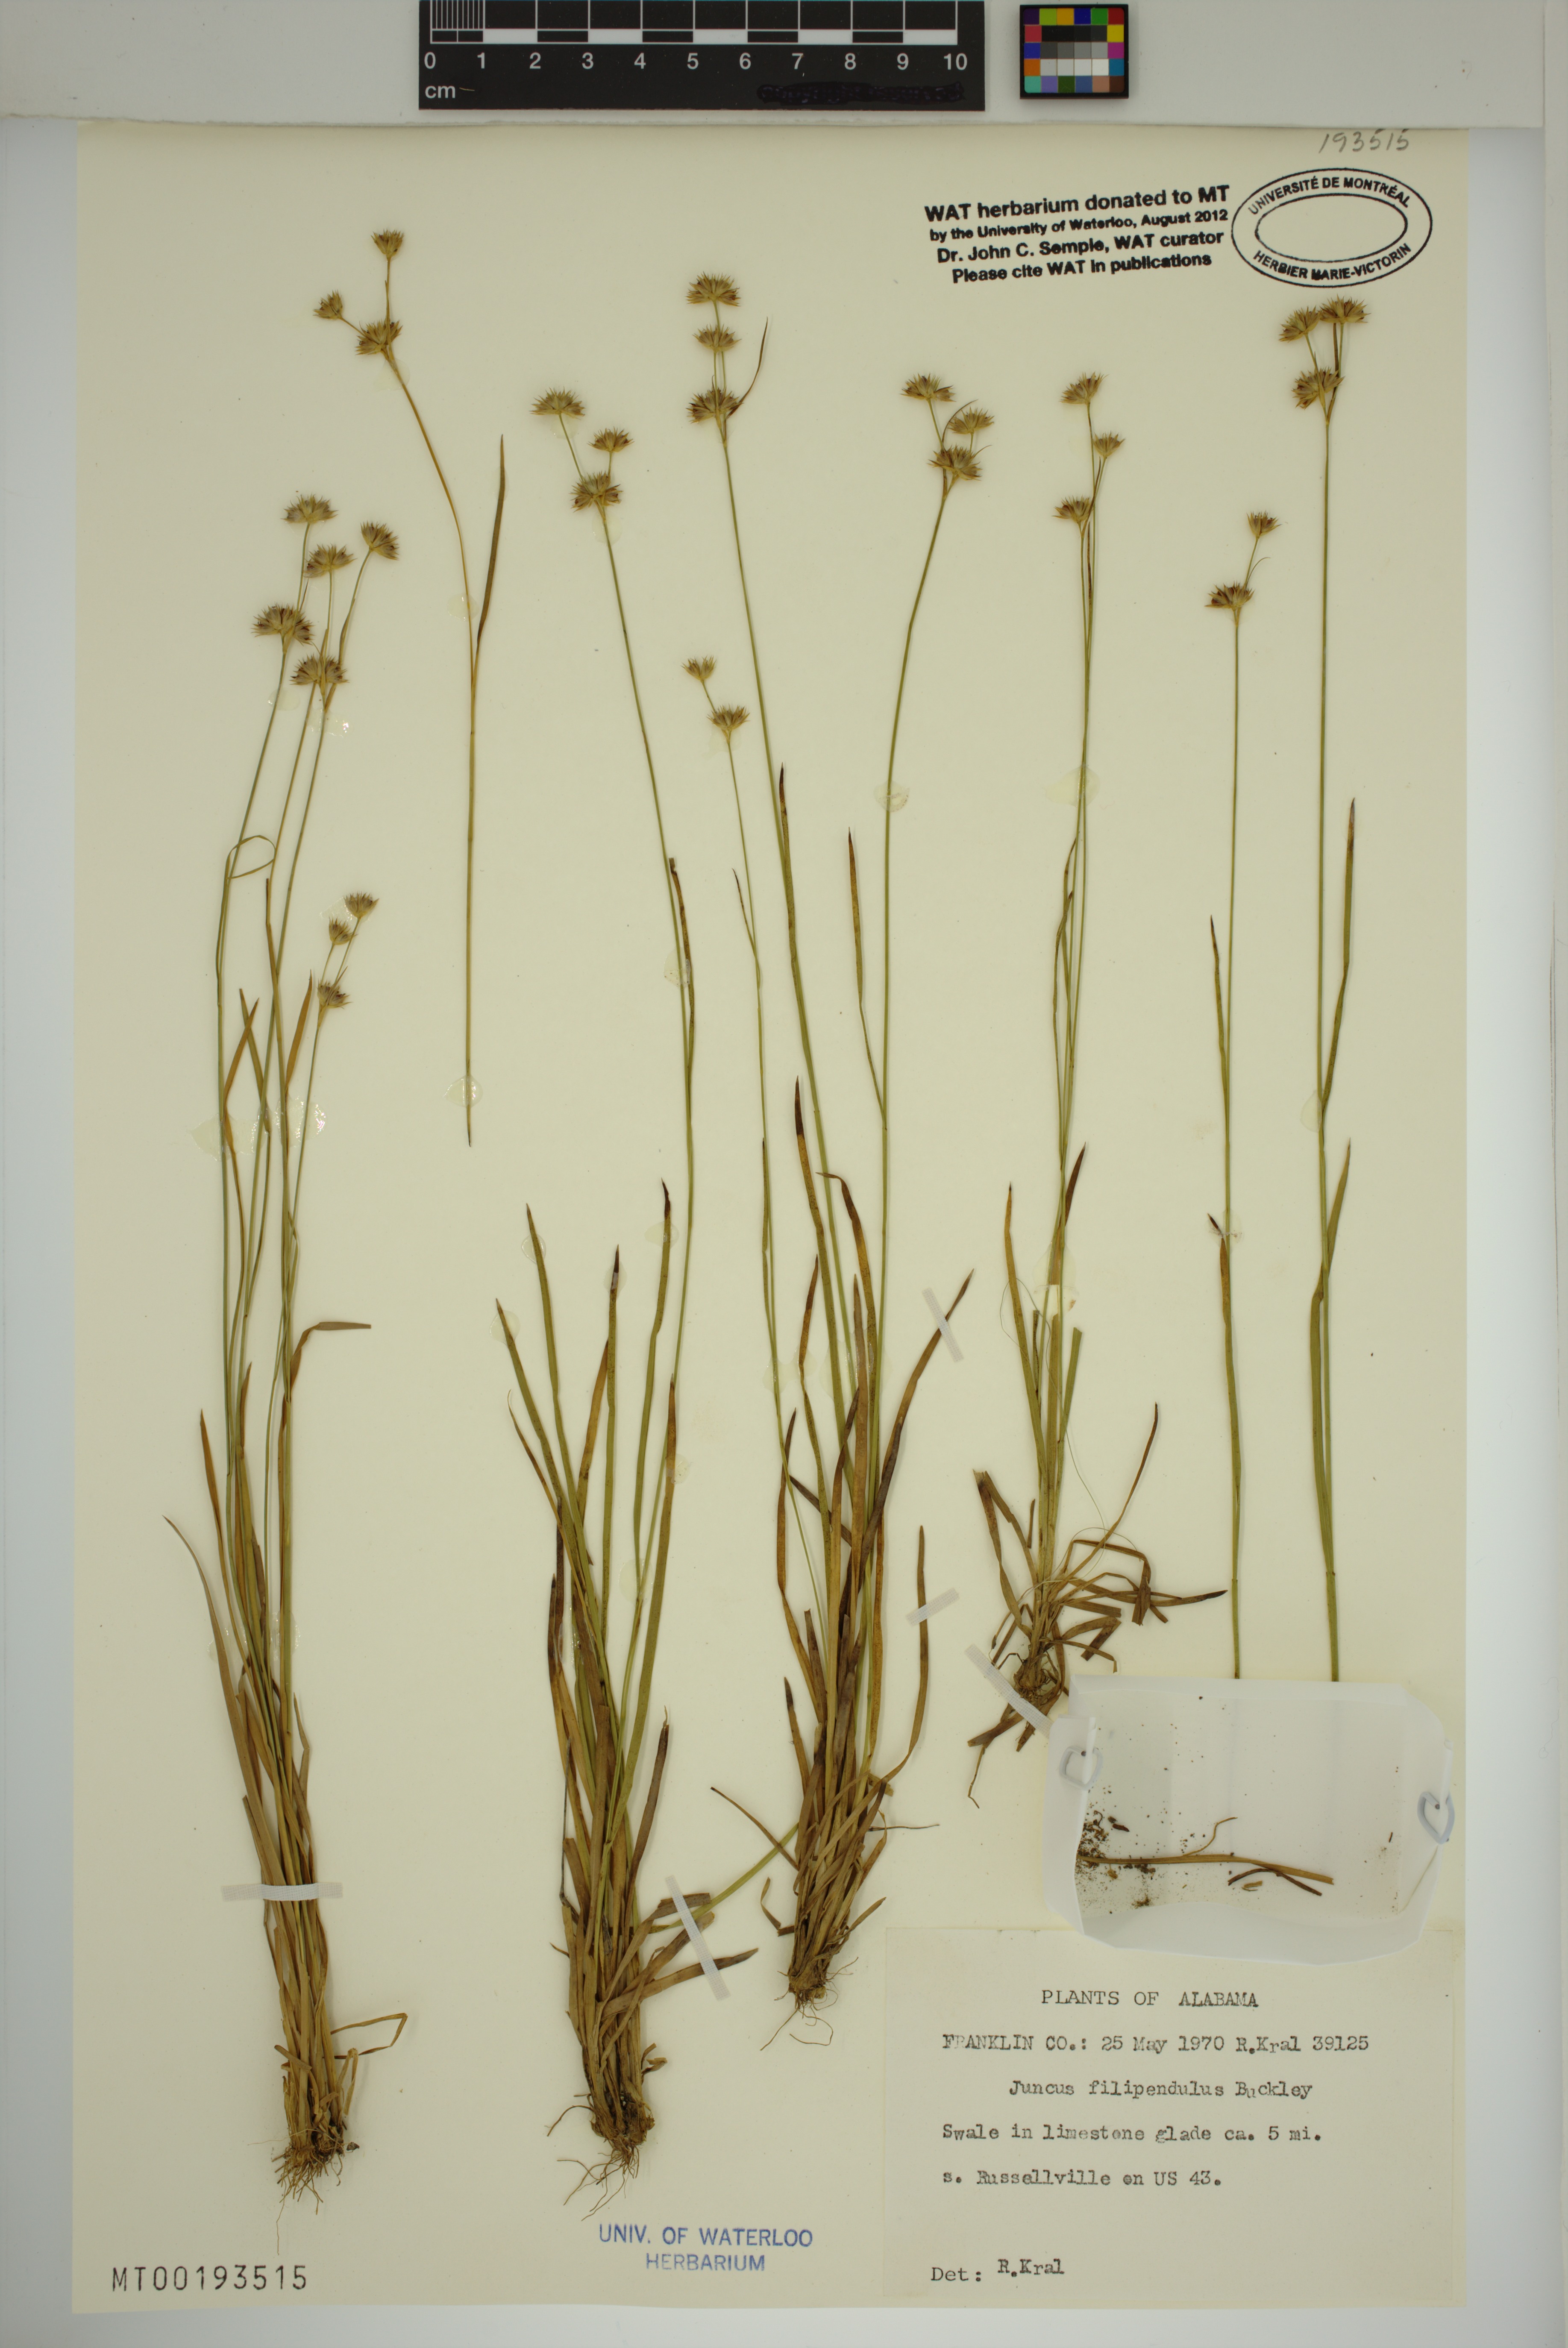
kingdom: Plantae
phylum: Tracheophyta
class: Liliopsida
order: Poales
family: Juncaceae
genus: Juncus
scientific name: Juncus filipendulus
